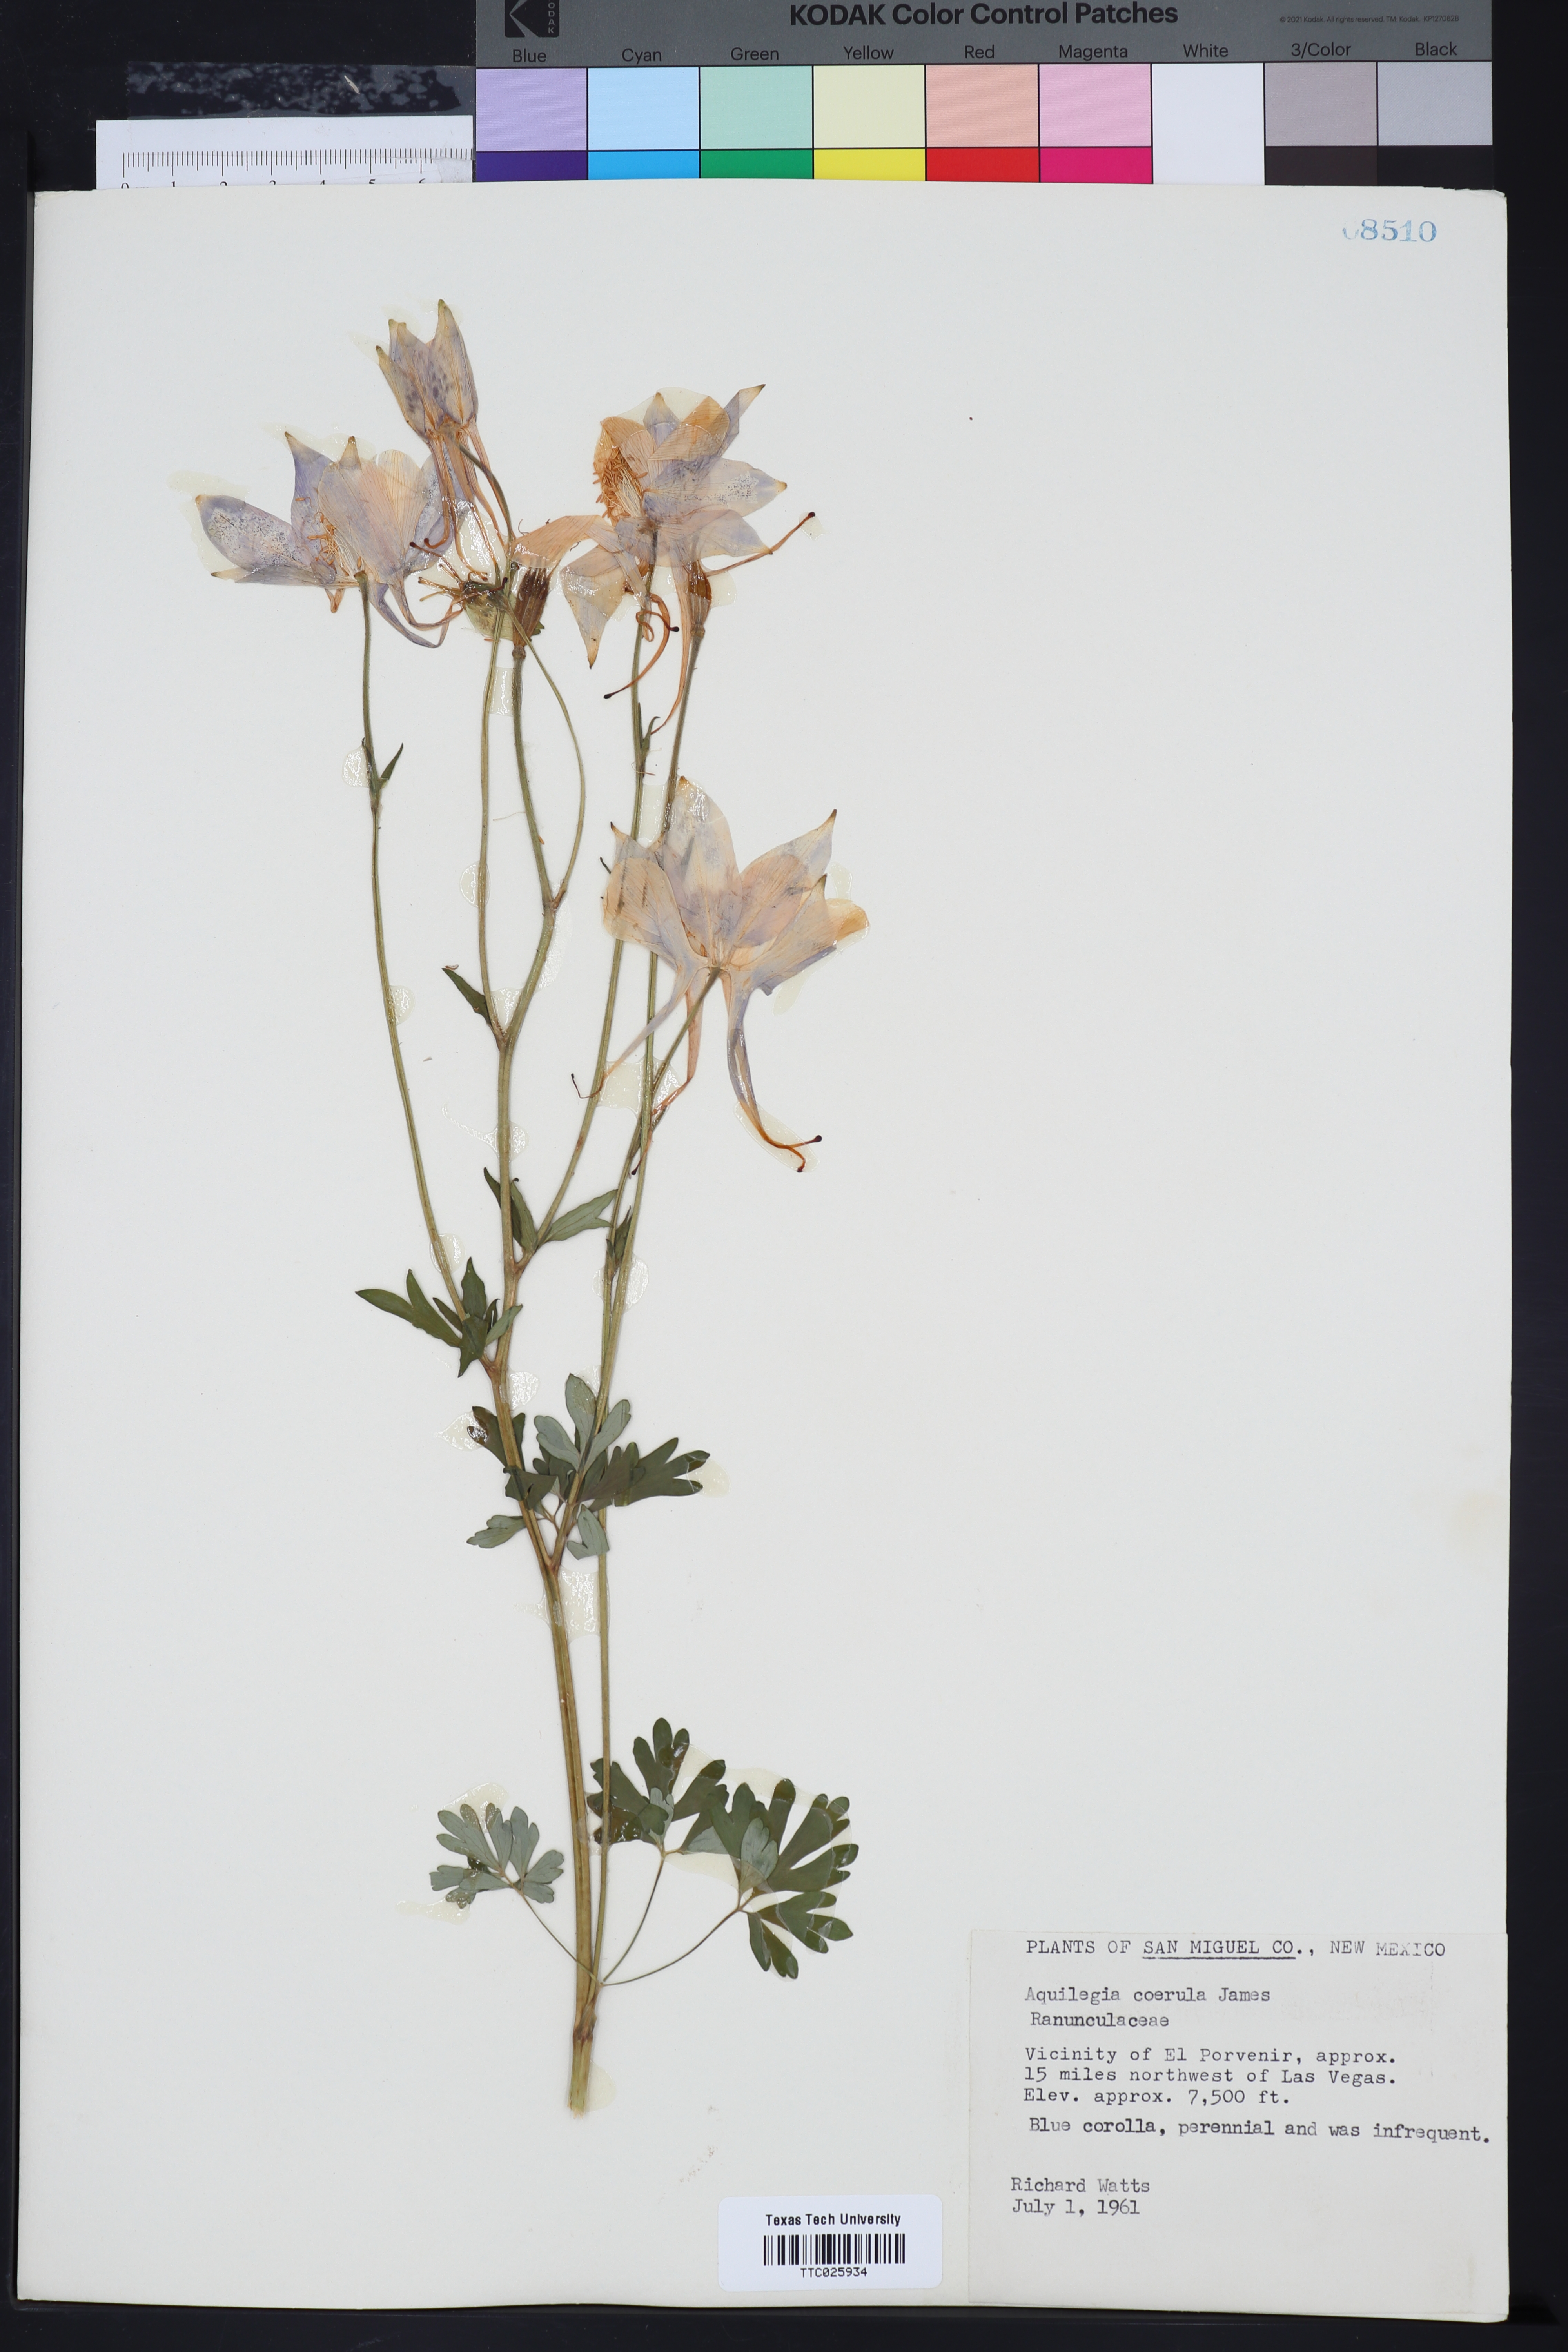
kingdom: Plantae
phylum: Tracheophyta
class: Magnoliopsida
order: Ranunculales
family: Ranunculaceae
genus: Aquilegia
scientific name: Aquilegia coerulea
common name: Rocky mountain columbine
